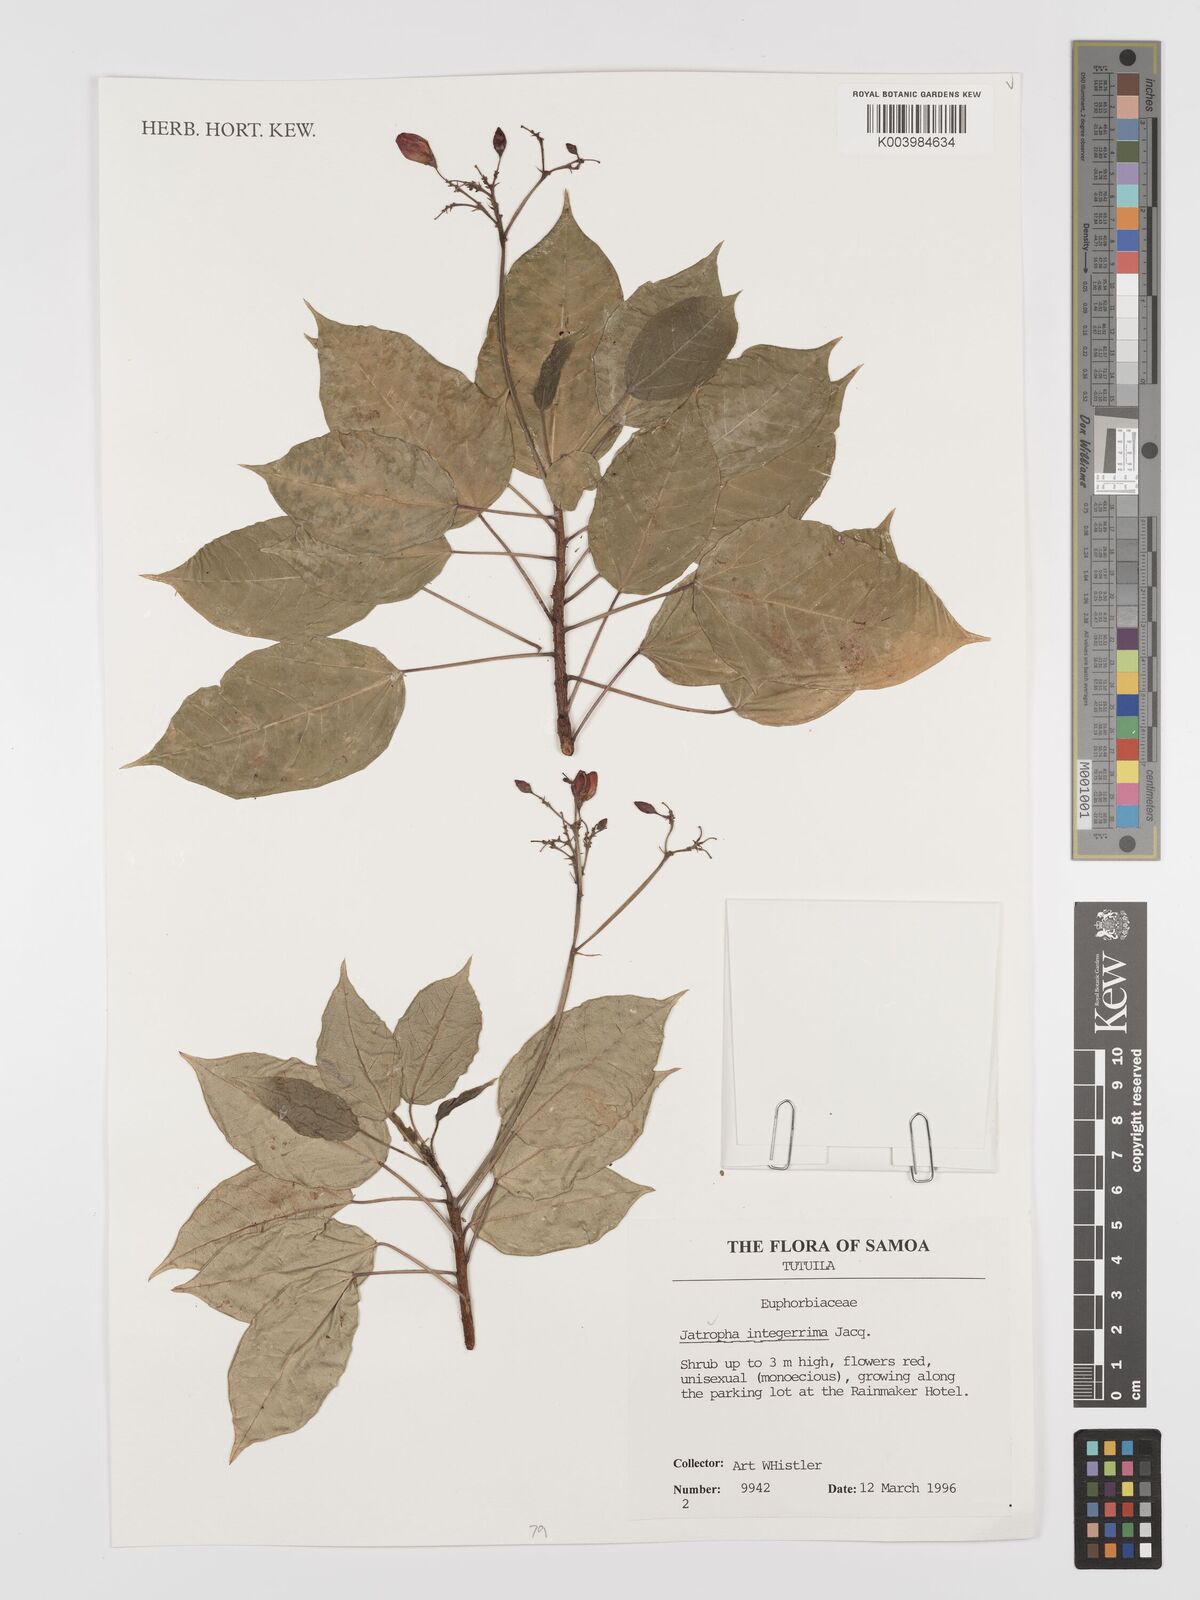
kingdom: Plantae
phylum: Tracheophyta
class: Magnoliopsida
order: Malpighiales
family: Euphorbiaceae
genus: Jatropha
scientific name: Jatropha integerrima
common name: Peregrina
